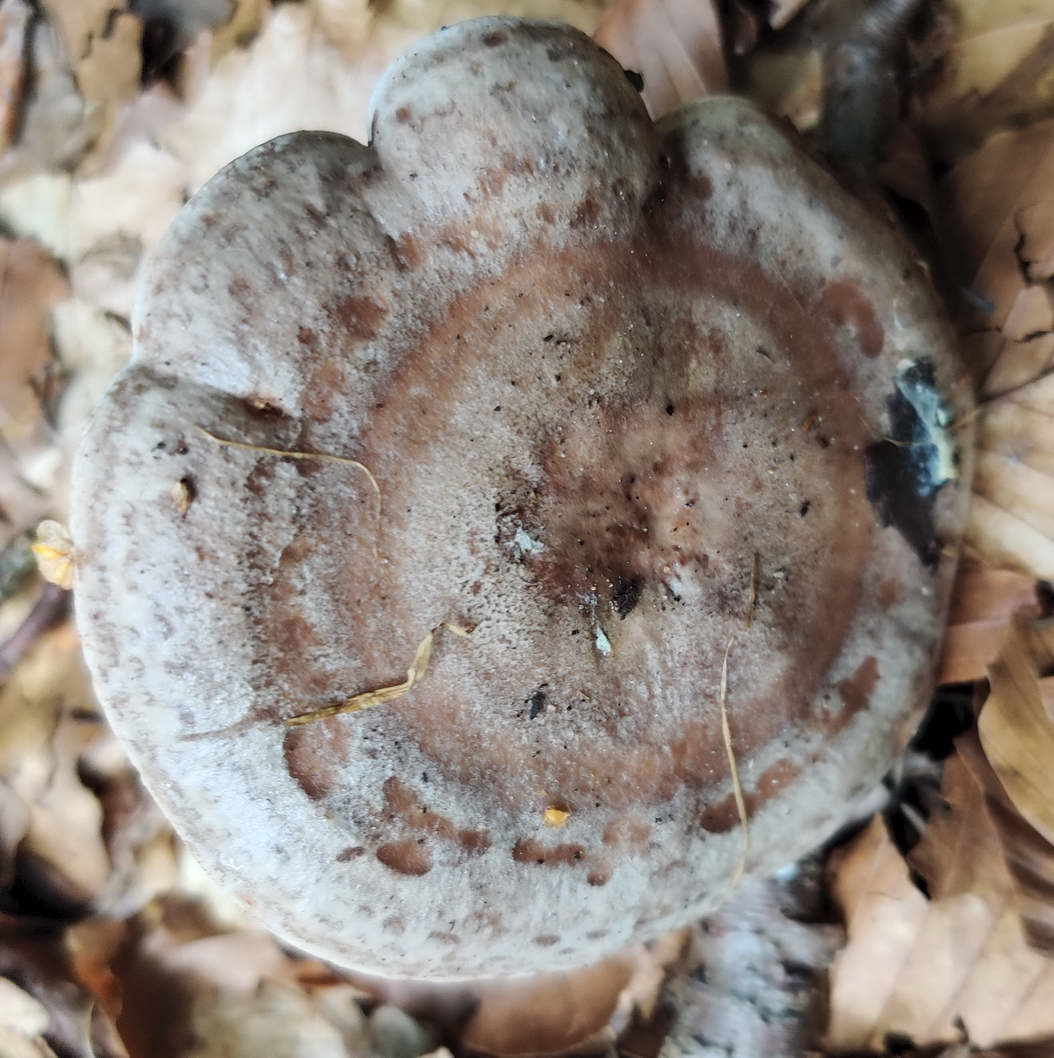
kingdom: Fungi
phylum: Basidiomycota
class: Agaricomycetes
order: Russulales
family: Russulaceae
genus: Lactarius
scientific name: Lactarius fluens
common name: lysrandet mælkehat
